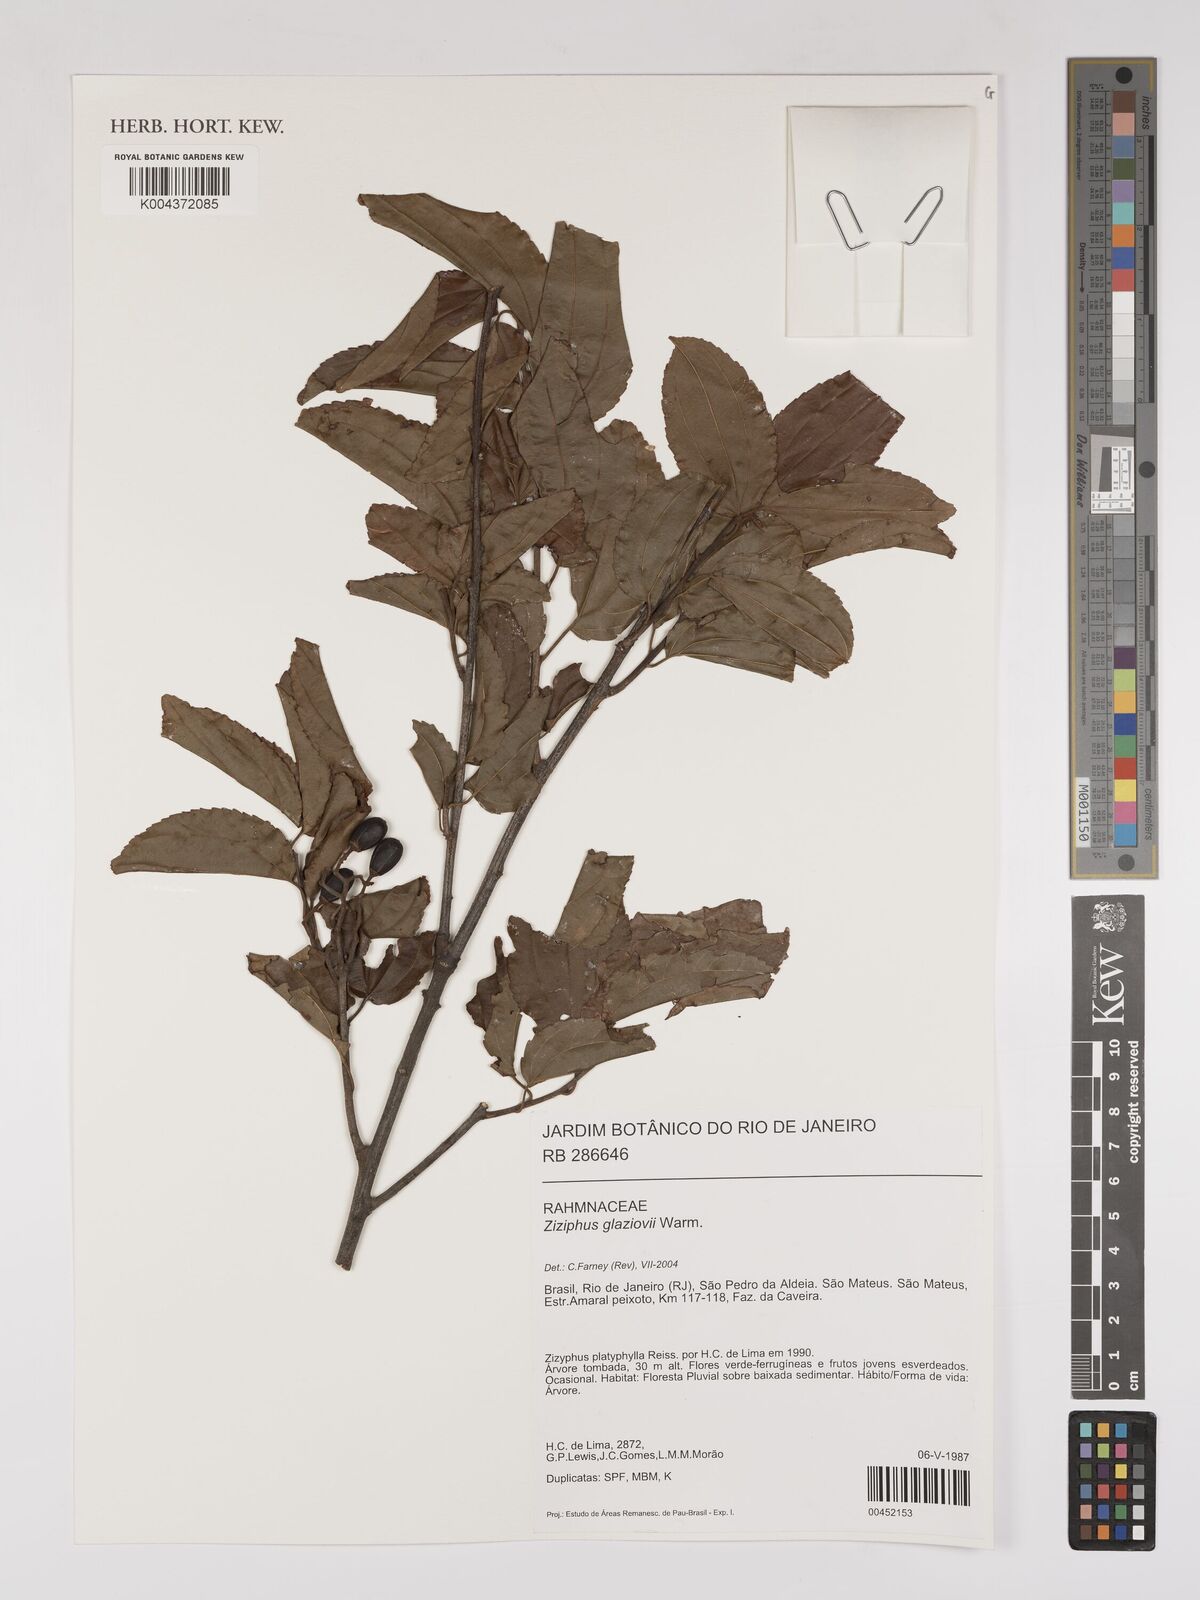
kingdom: Plantae
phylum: Tracheophyta
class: Magnoliopsida
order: Rosales
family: Rhamnaceae
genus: Sarcomphalus
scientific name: Sarcomphalus glaziovii
